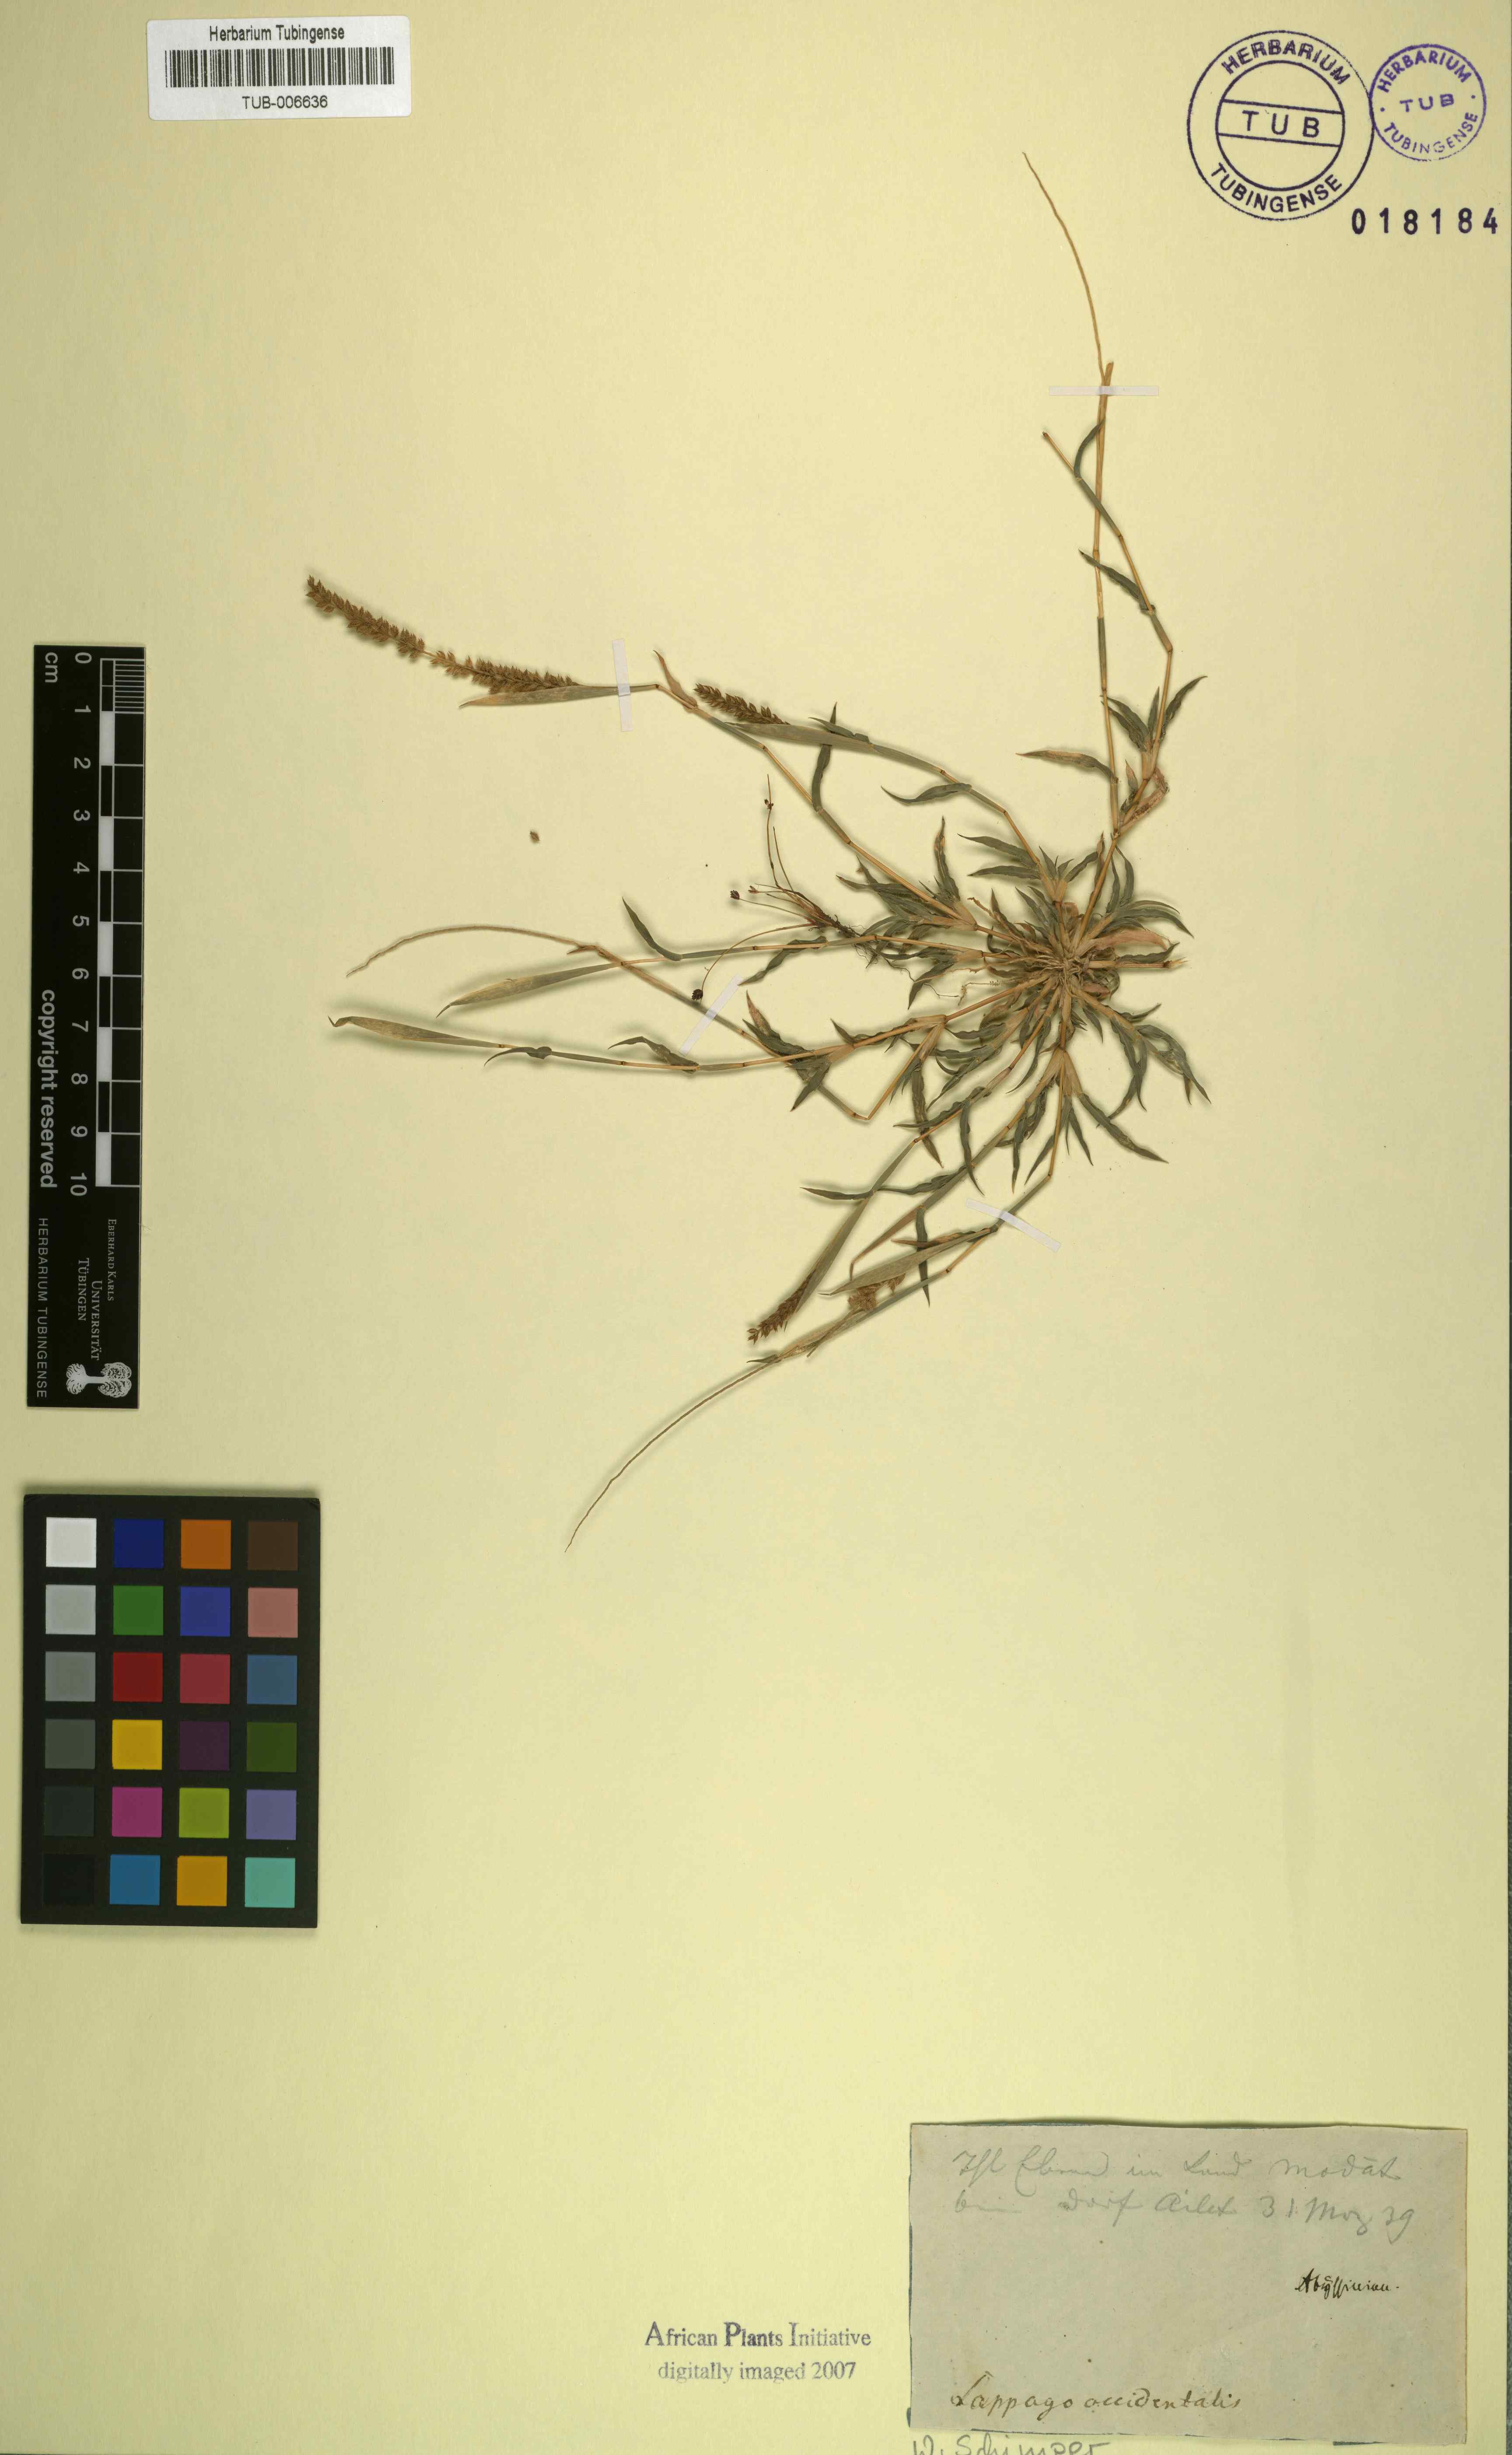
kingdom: Plantae
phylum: Tracheophyta
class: Liliopsida
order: Poales
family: Poaceae
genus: Tragus
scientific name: Tragus berteronianus
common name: African bur-grass
